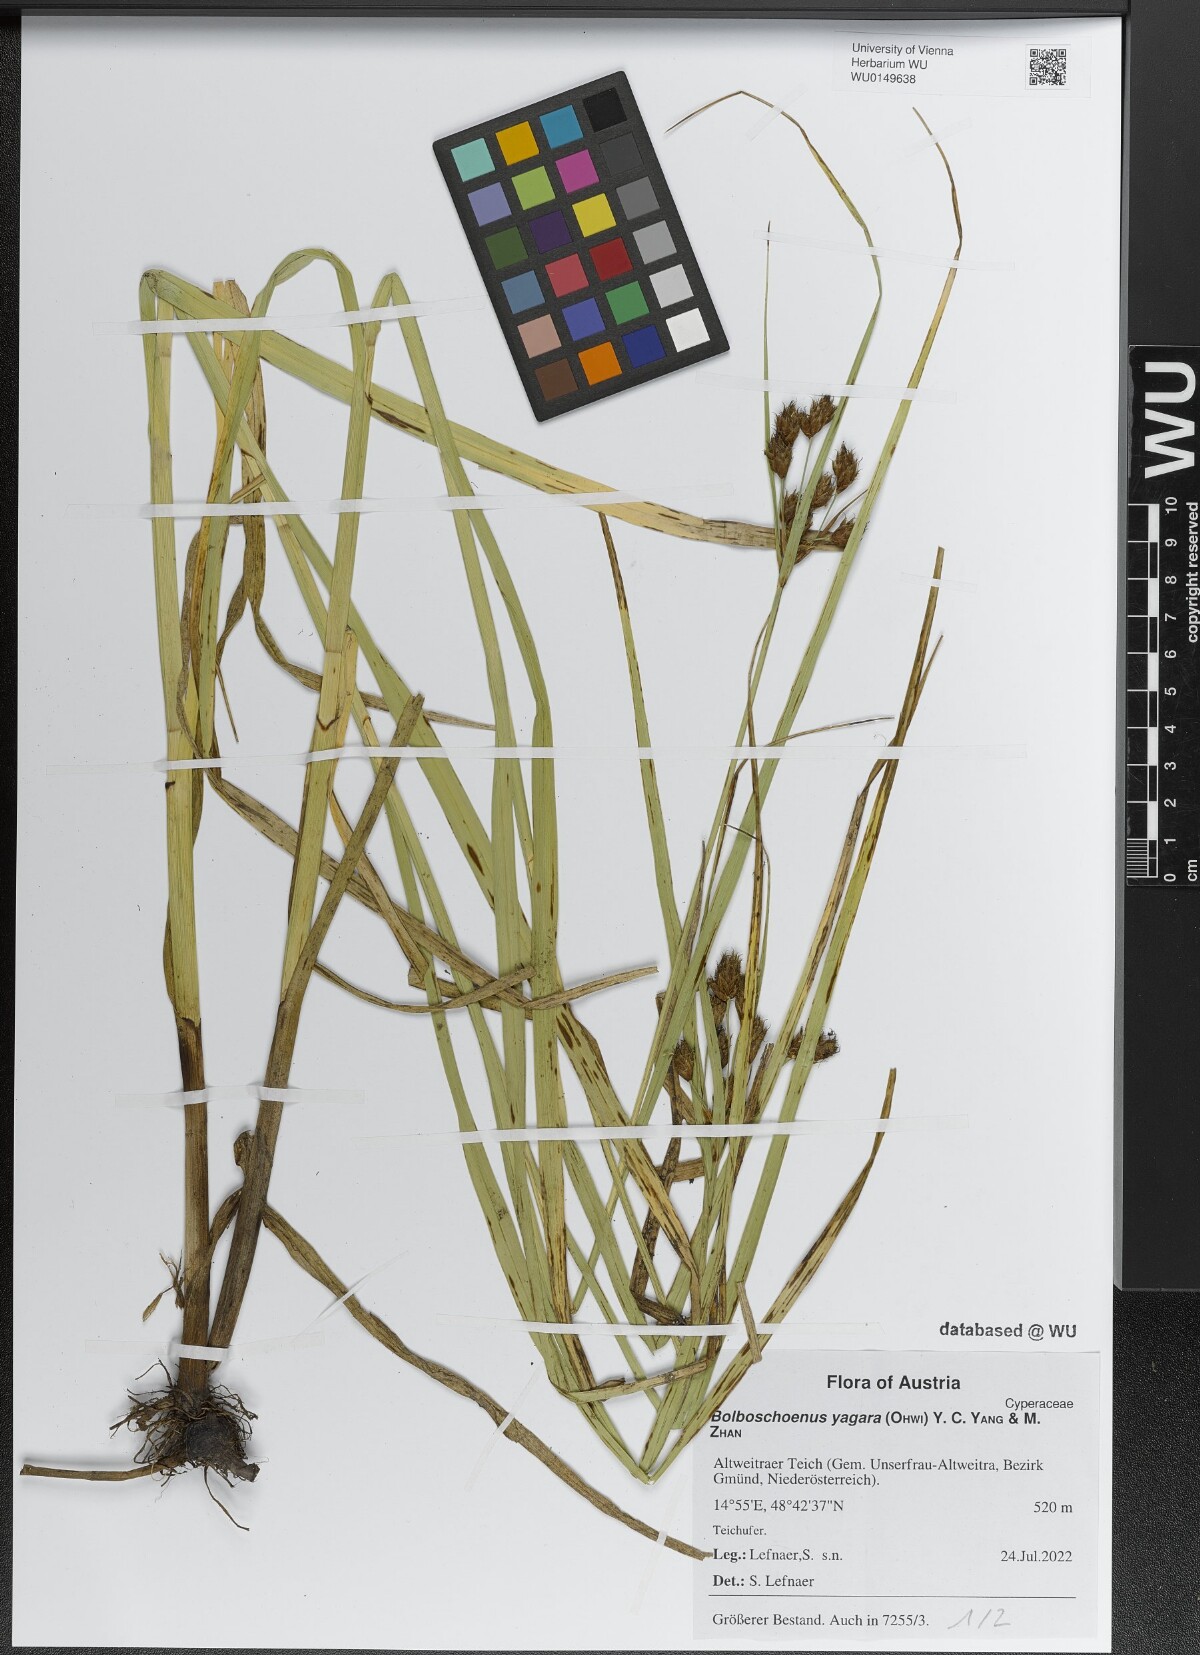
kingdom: Plantae
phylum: Tracheophyta
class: Liliopsida
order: Poales
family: Cyperaceae
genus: Bolboschoenus
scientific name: Bolboschoenus yagara
